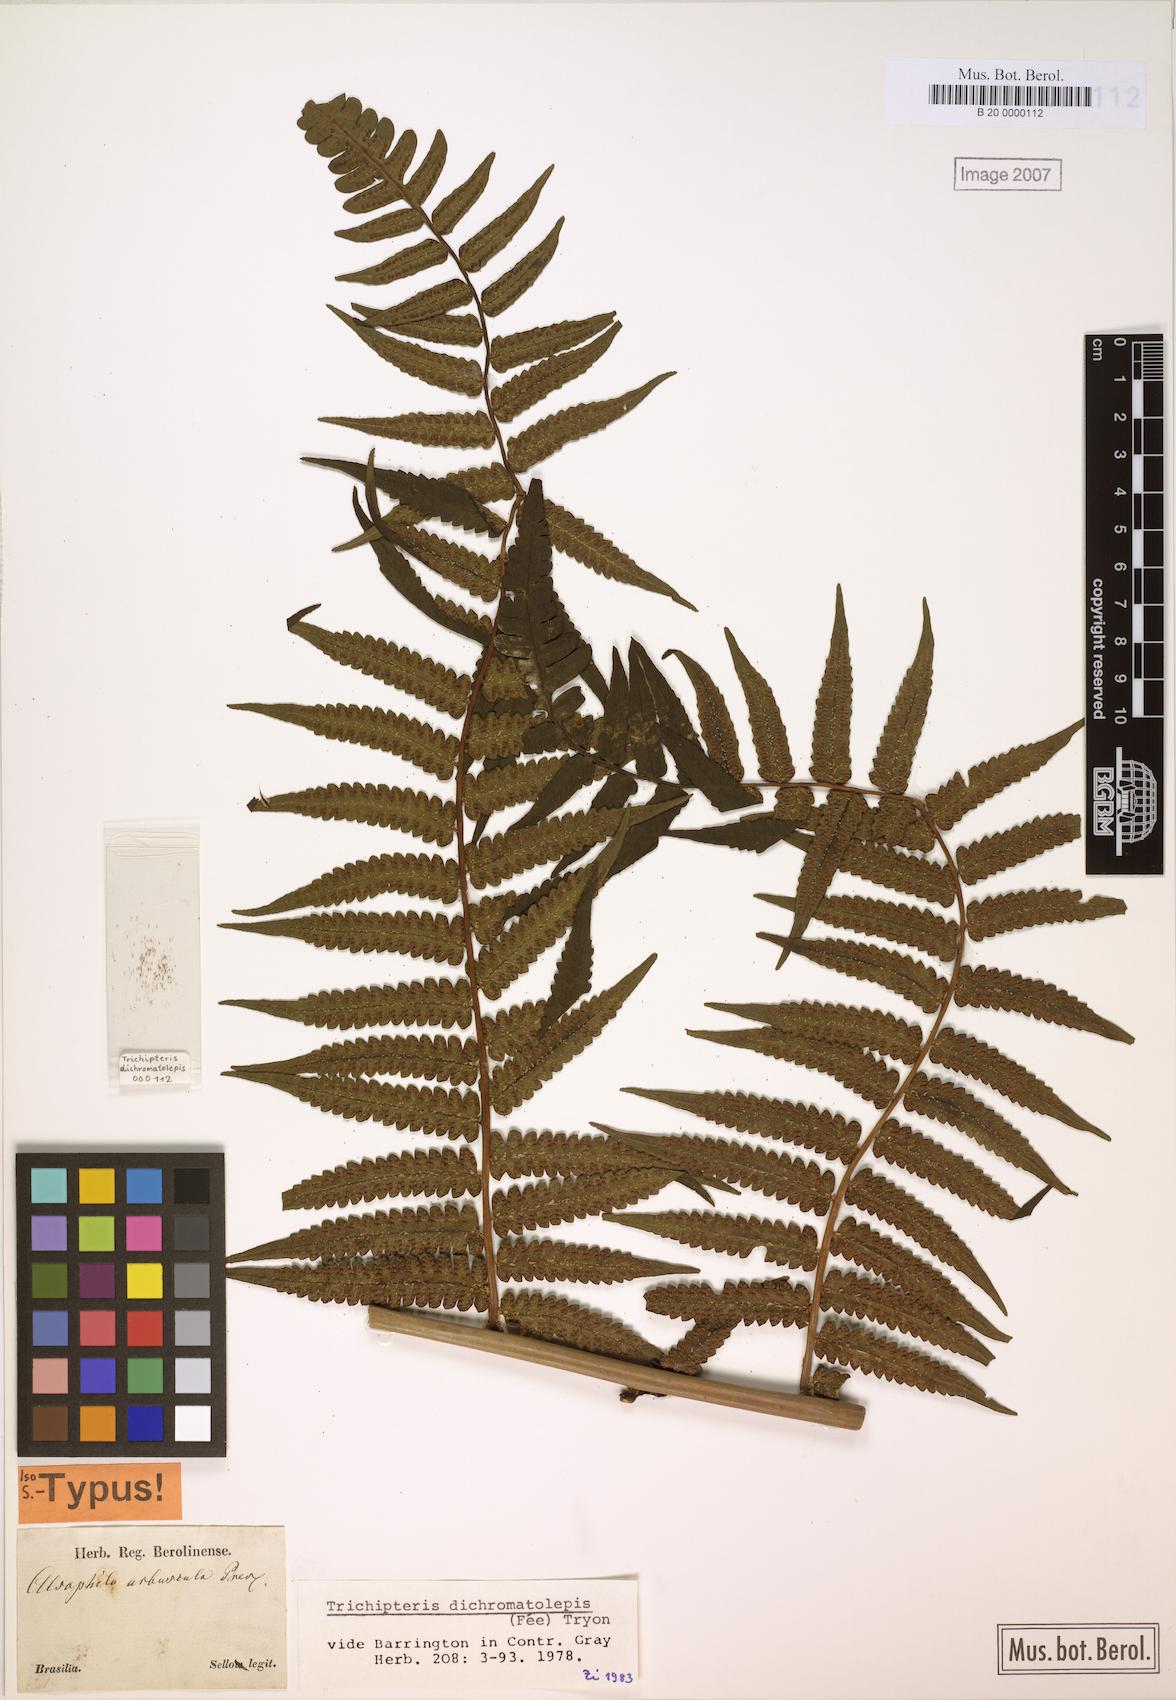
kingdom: Plantae
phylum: Tracheophyta
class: Polypodiopsida
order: Cyatheales
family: Cyatheaceae
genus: Cyathea
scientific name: Cyathea dichromatolepis
